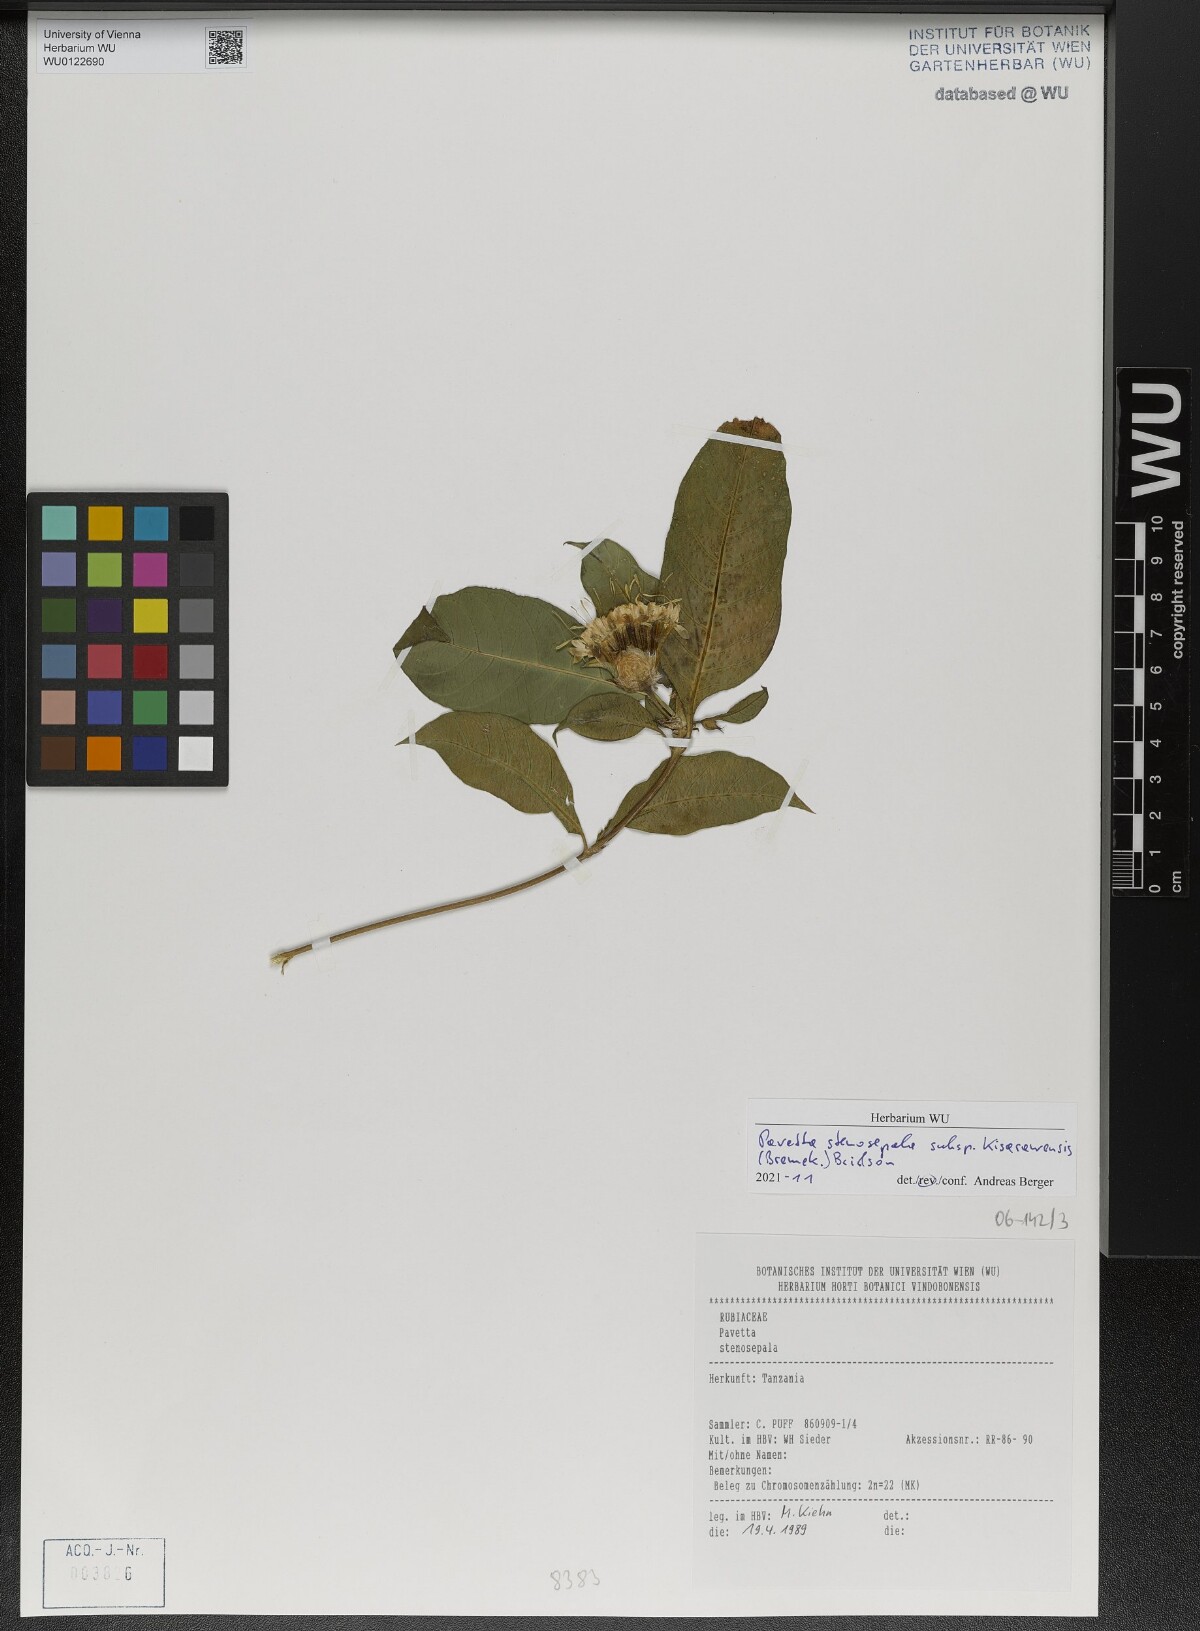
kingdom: Plantae
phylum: Tracheophyta
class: Magnoliopsida
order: Gentianales
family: Rubiaceae
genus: Pavetta
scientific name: Pavetta stenosepala
